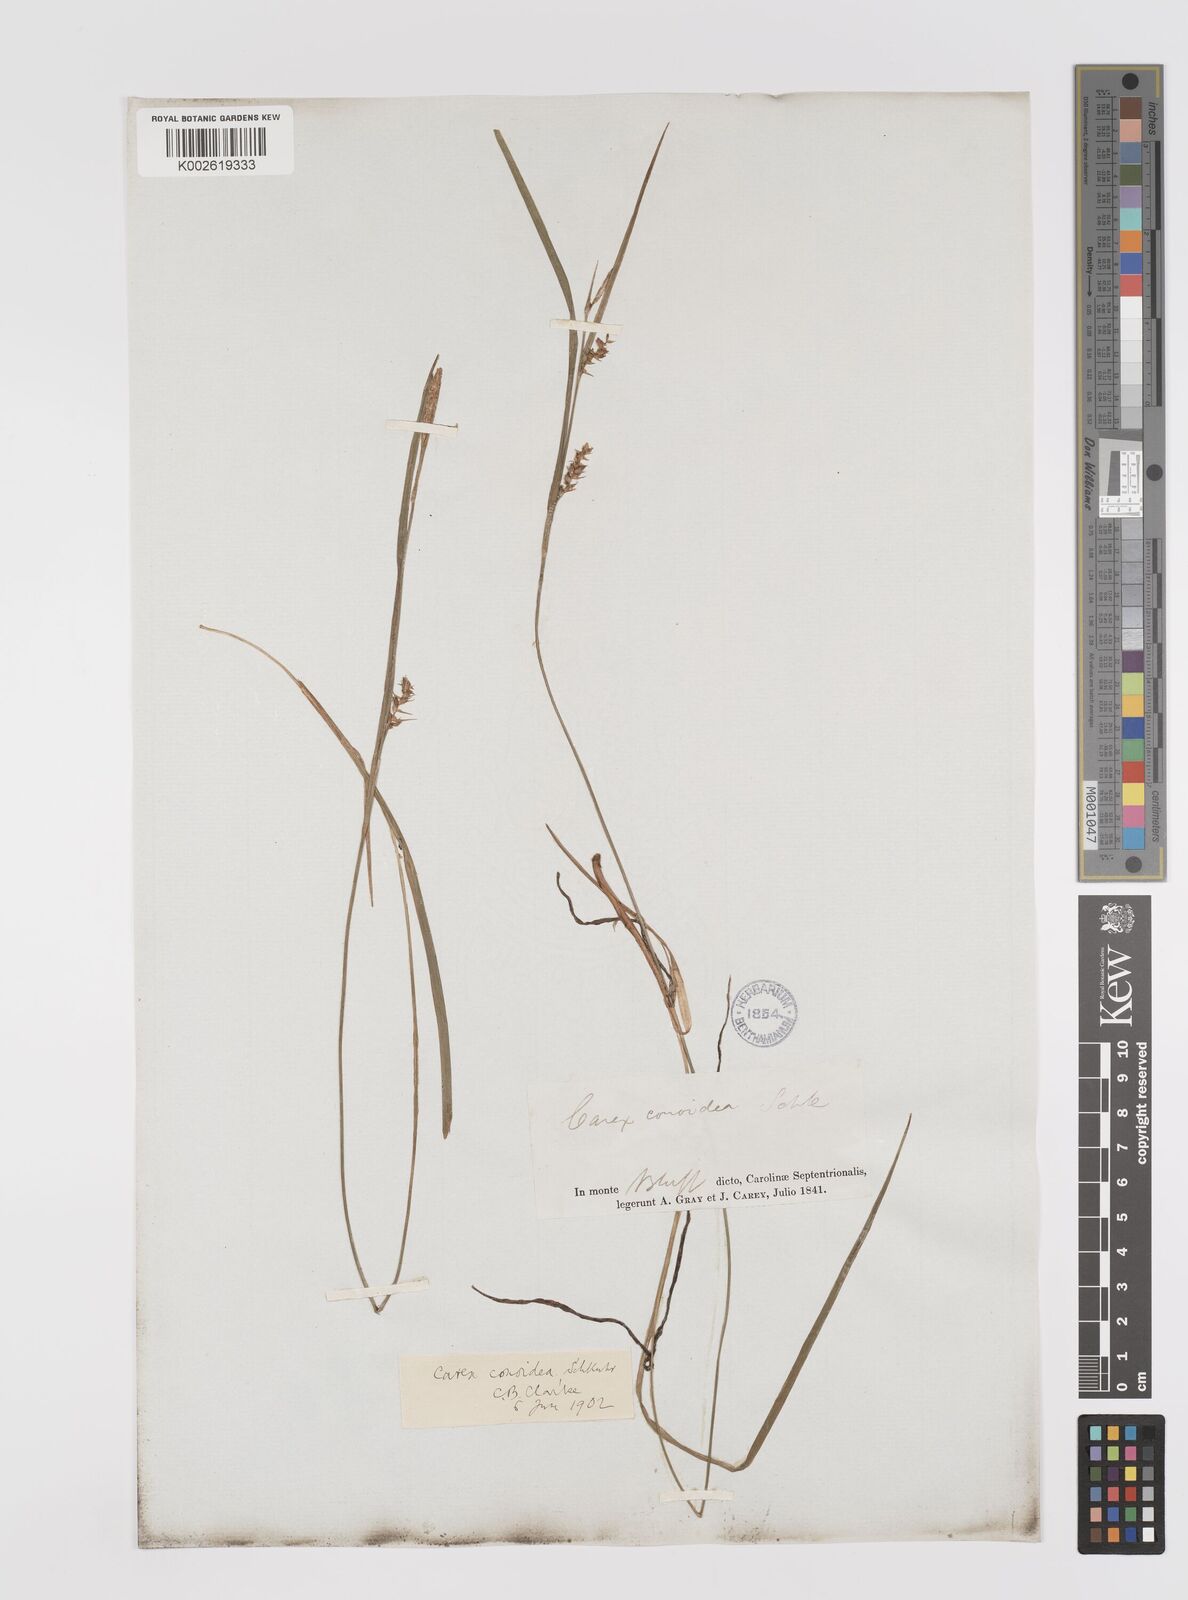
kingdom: Plantae
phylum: Tracheophyta
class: Liliopsida
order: Poales
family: Cyperaceae
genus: Carex
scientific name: Carex conoidea
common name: Cone shaped sedge
